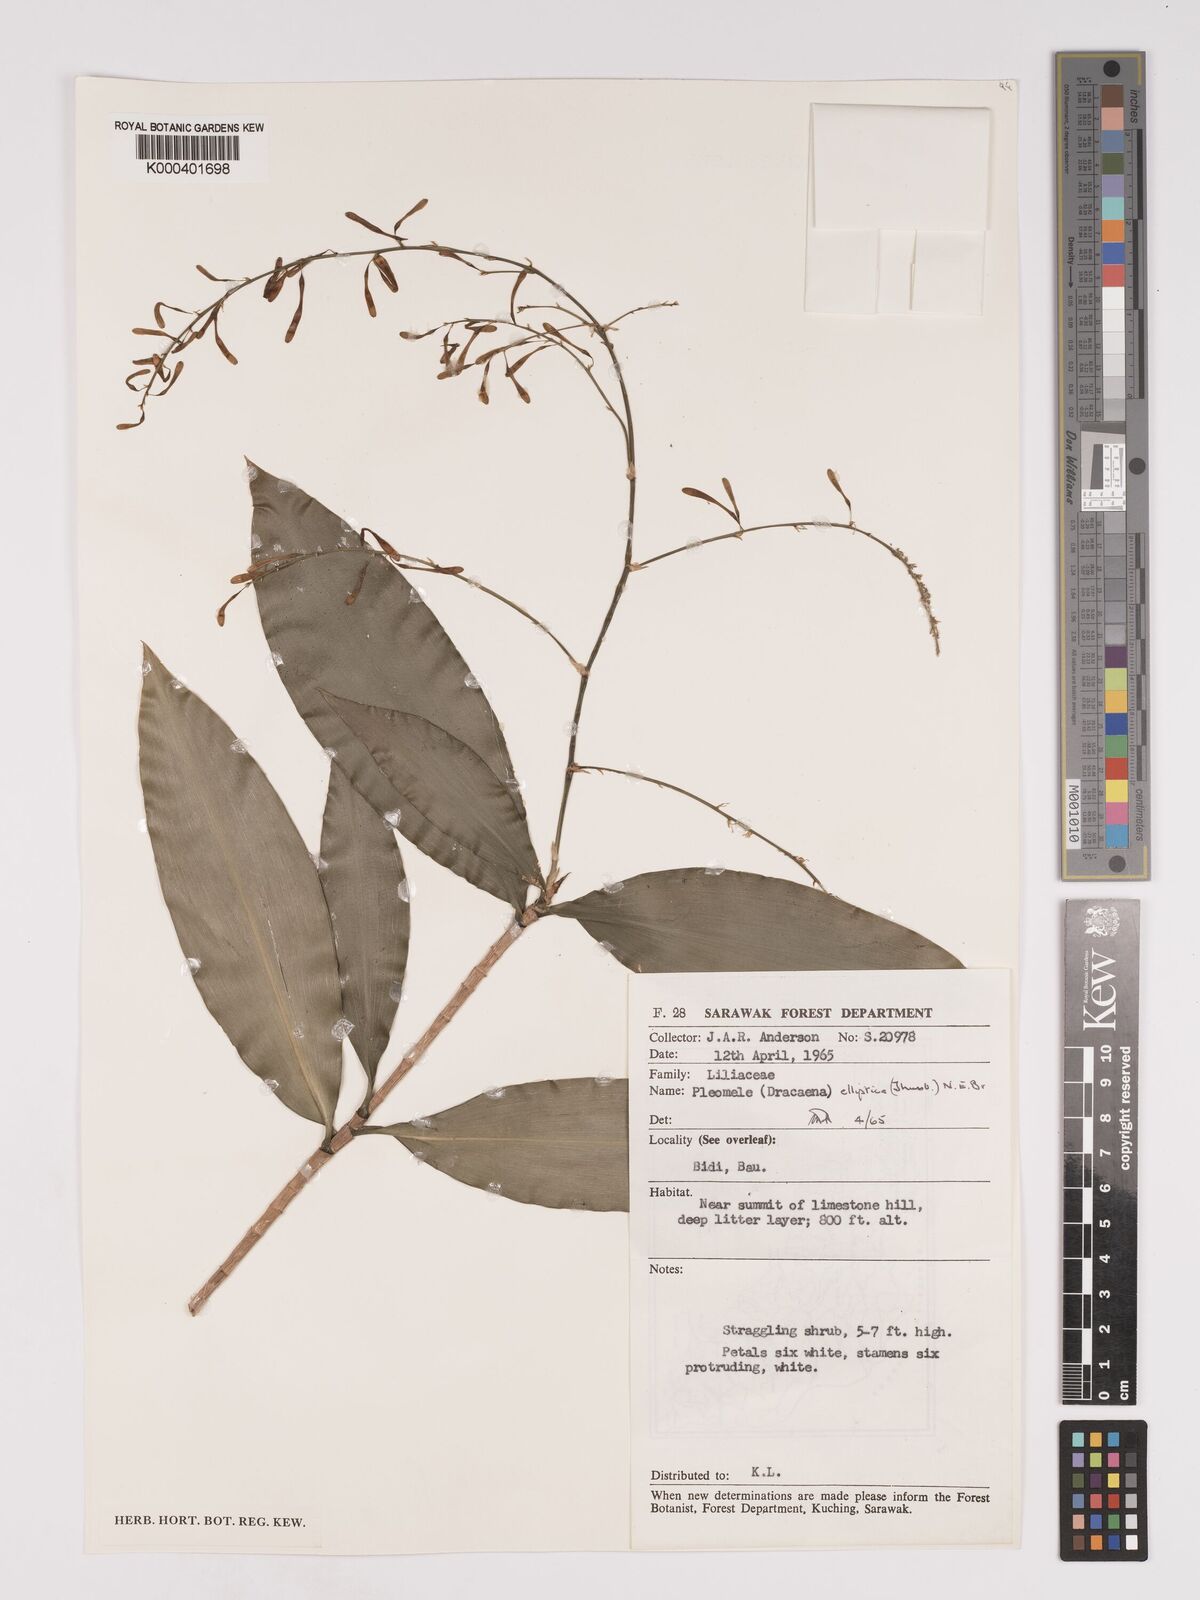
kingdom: Plantae
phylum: Tracheophyta
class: Liliopsida
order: Asparagales
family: Asparagaceae
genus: Dracaena
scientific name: Dracaena elliptica
